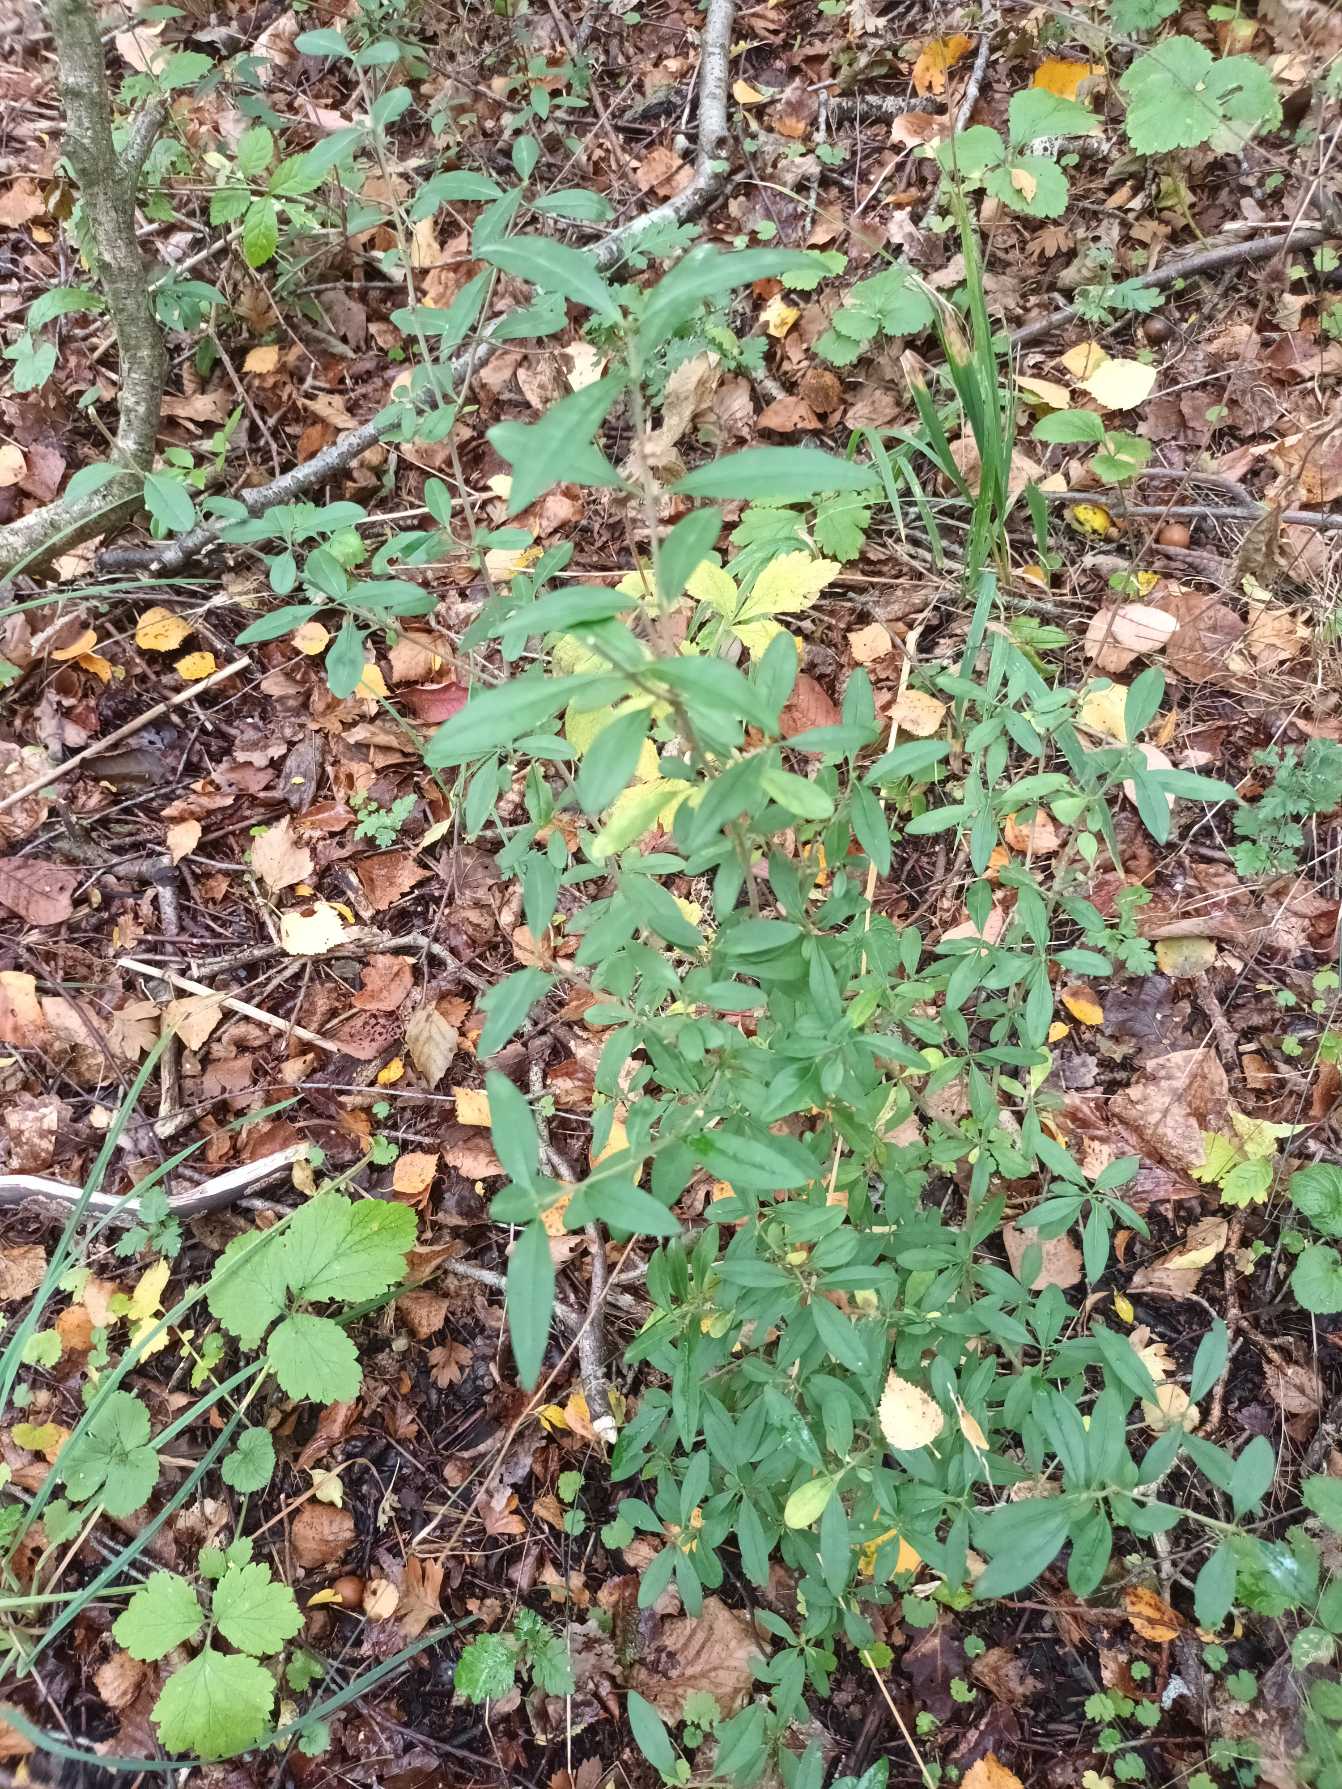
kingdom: Plantae
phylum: Tracheophyta
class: Magnoliopsida
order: Lamiales
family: Oleaceae
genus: Ligustrum
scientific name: Ligustrum vulgare
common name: Liguster
